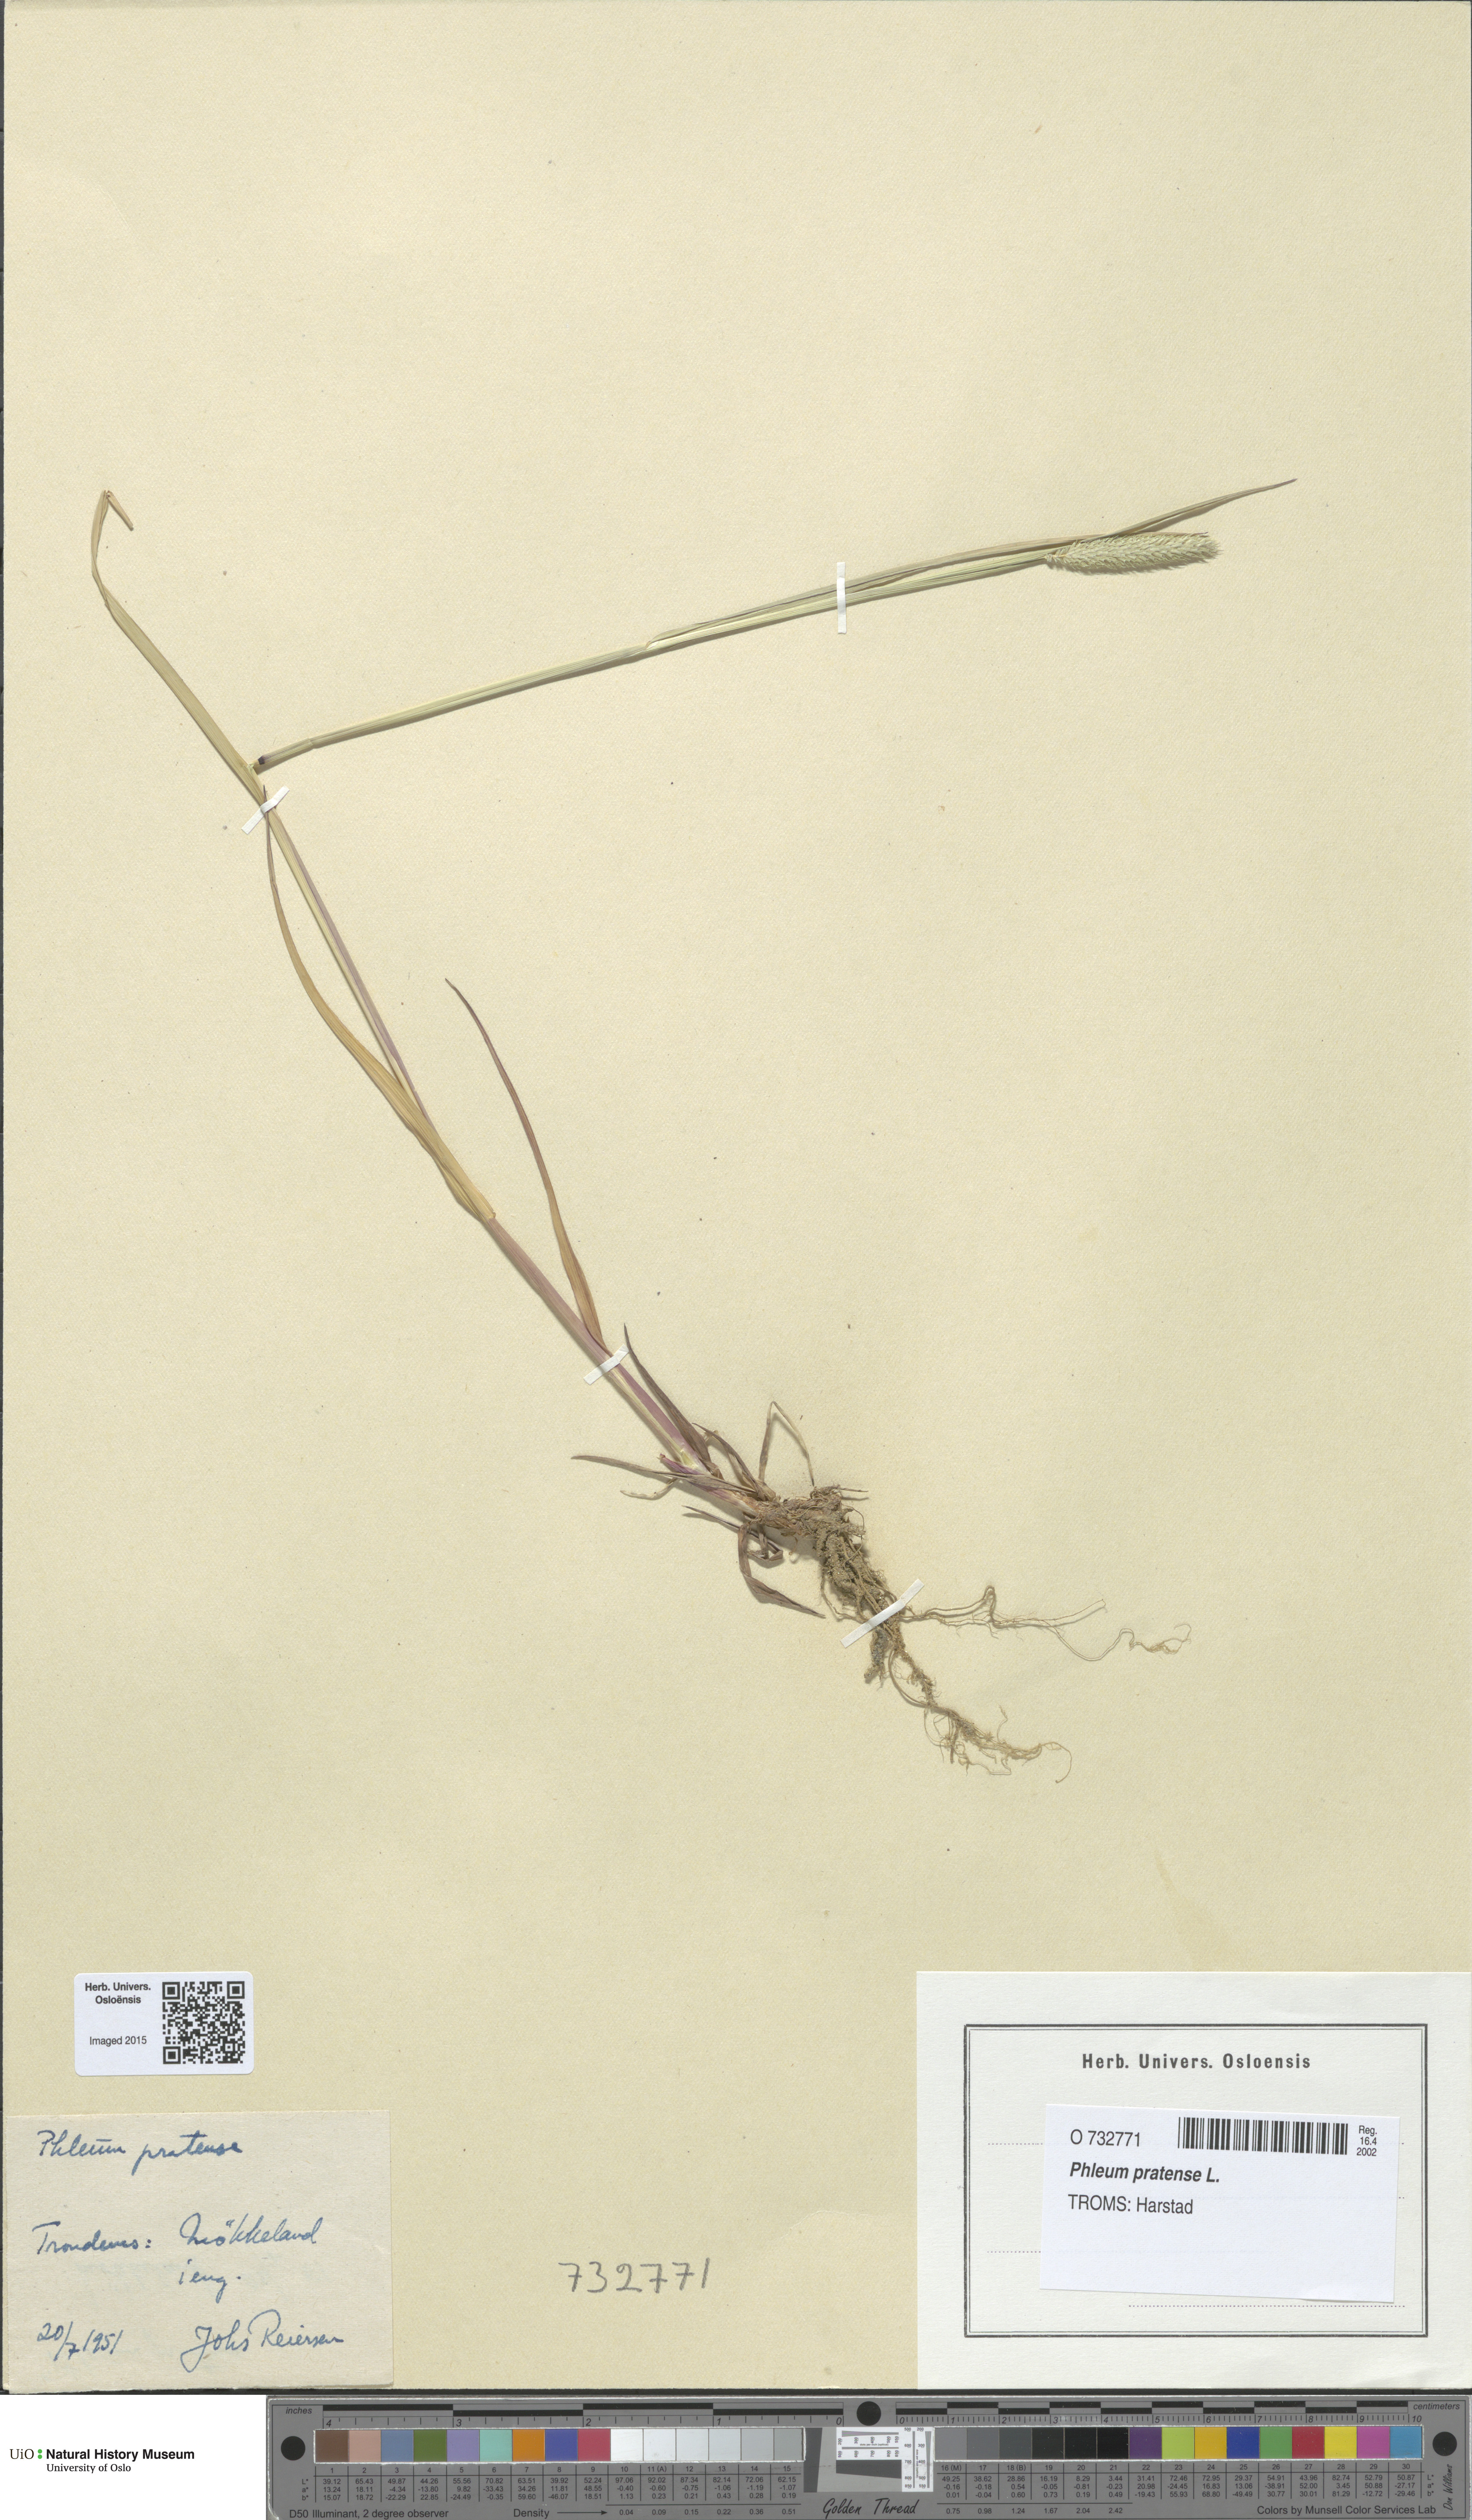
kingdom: Plantae
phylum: Tracheophyta
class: Liliopsida
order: Poales
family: Poaceae
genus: Phleum
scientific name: Phleum pratense
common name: Timothy grass
